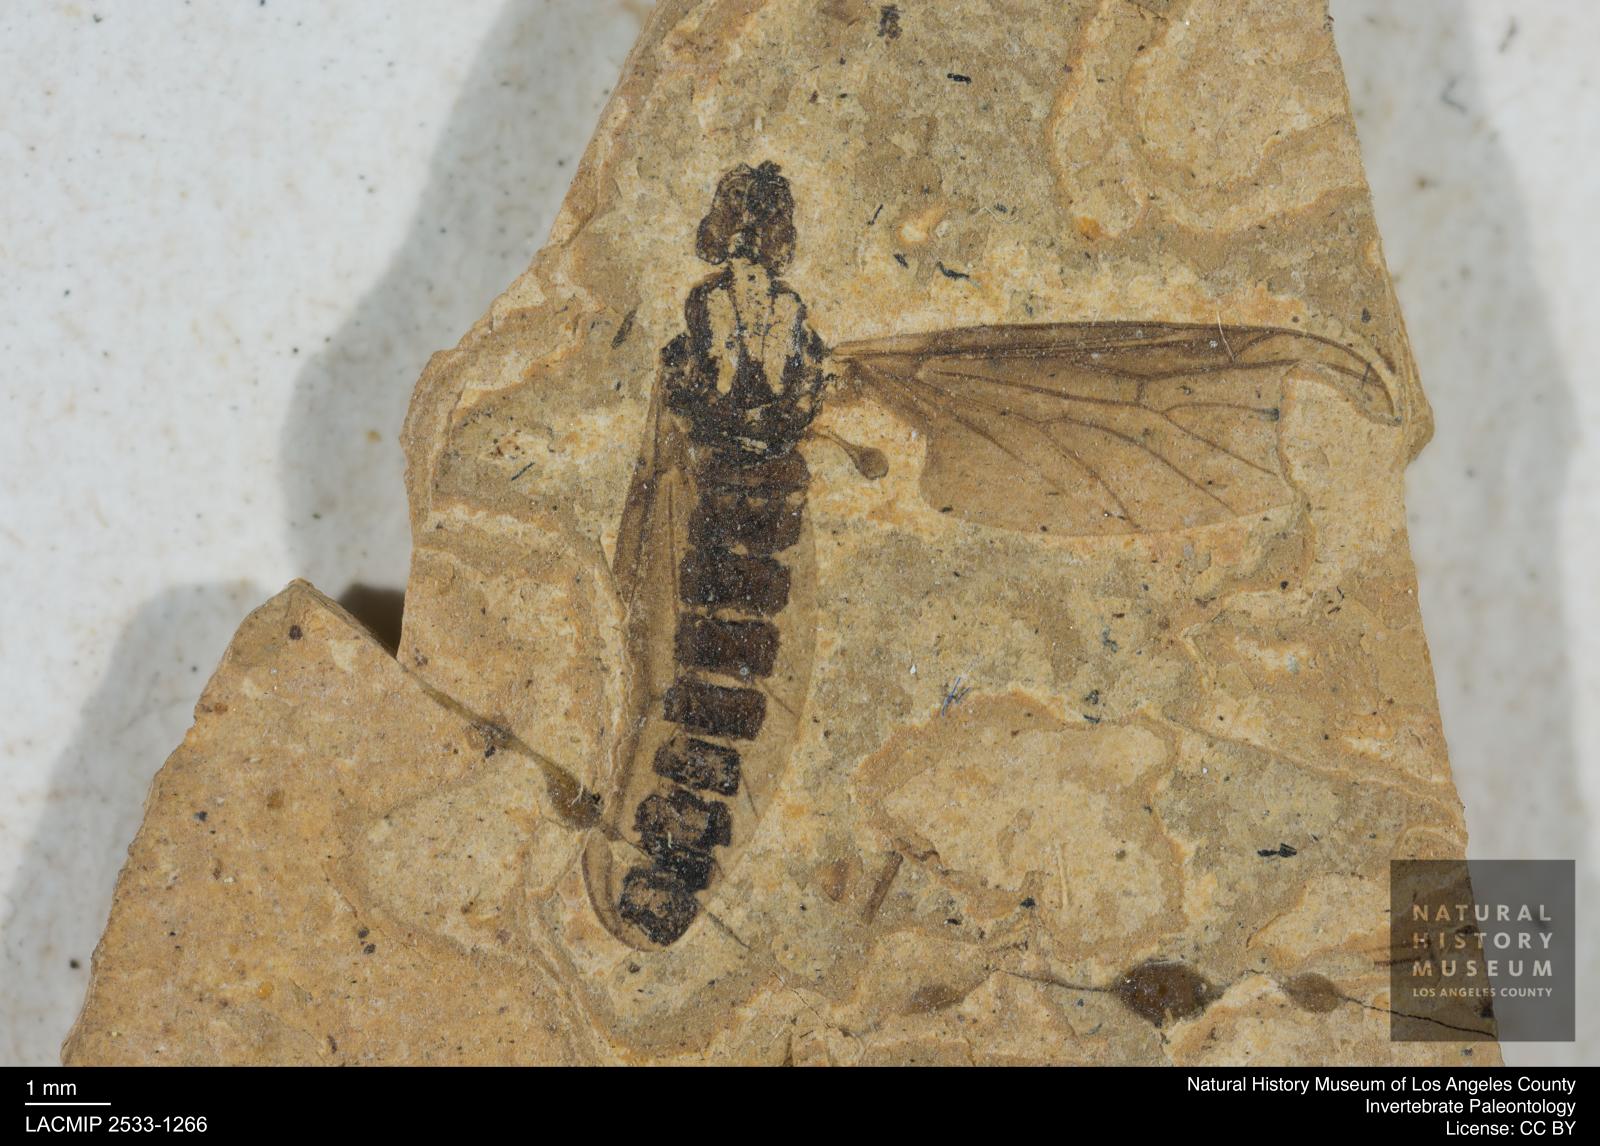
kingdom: Animalia
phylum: Arthropoda
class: Insecta
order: Diptera
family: Bibionidae
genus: Plecia
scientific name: Plecia
